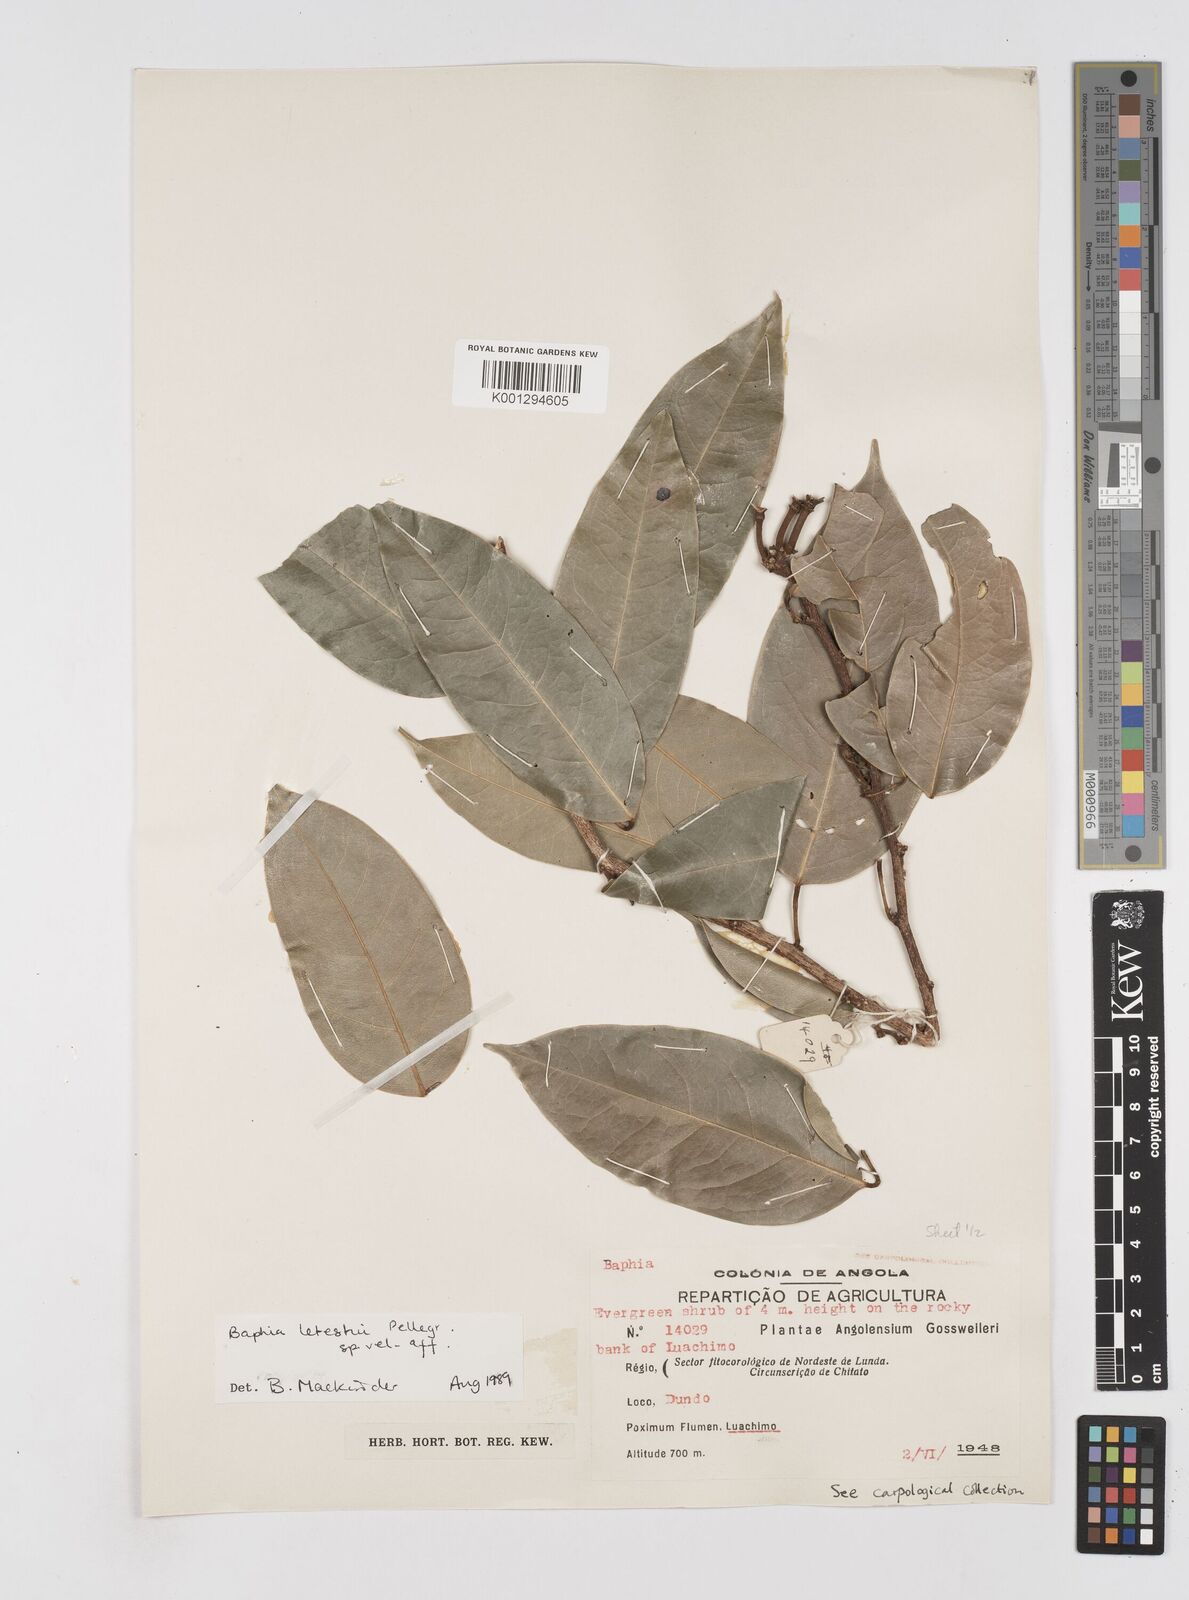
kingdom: Plantae
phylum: Tracheophyta
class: Magnoliopsida
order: Fabales
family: Fabaceae
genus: Baphia
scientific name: Baphia letestui
